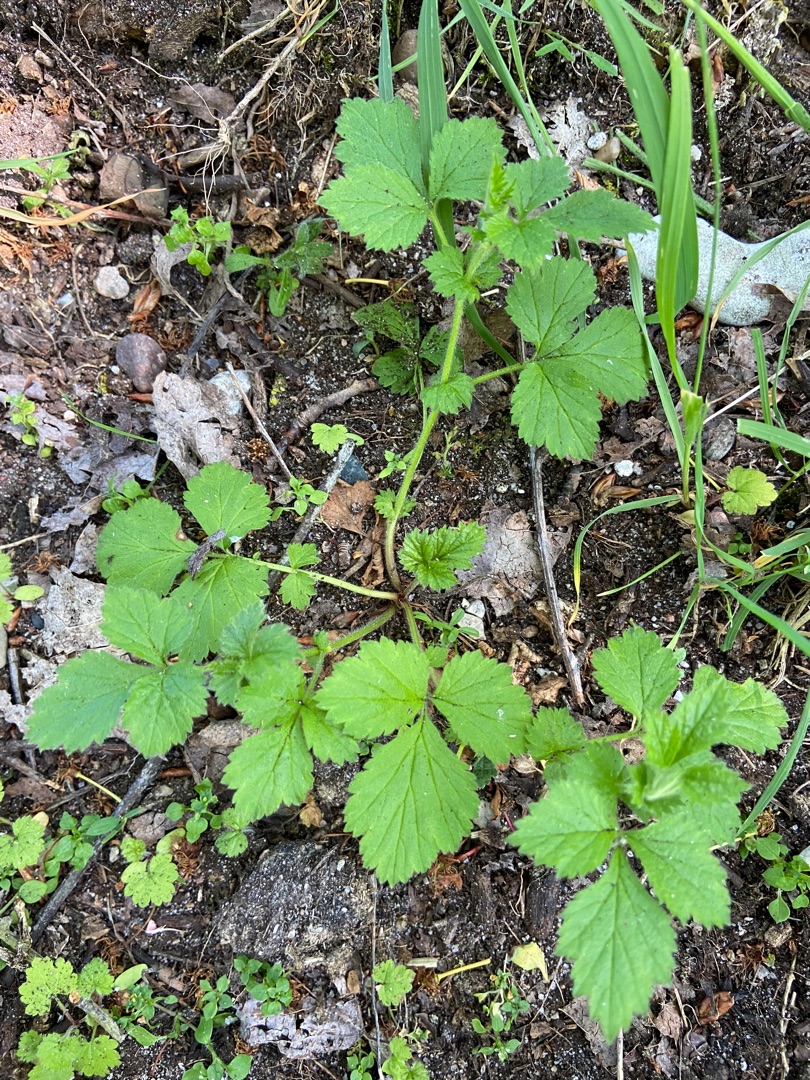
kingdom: Plantae
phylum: Tracheophyta
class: Magnoliopsida
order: Rosales
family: Rosaceae
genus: Geum
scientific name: Geum urbanum
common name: Feber-nellikerod
